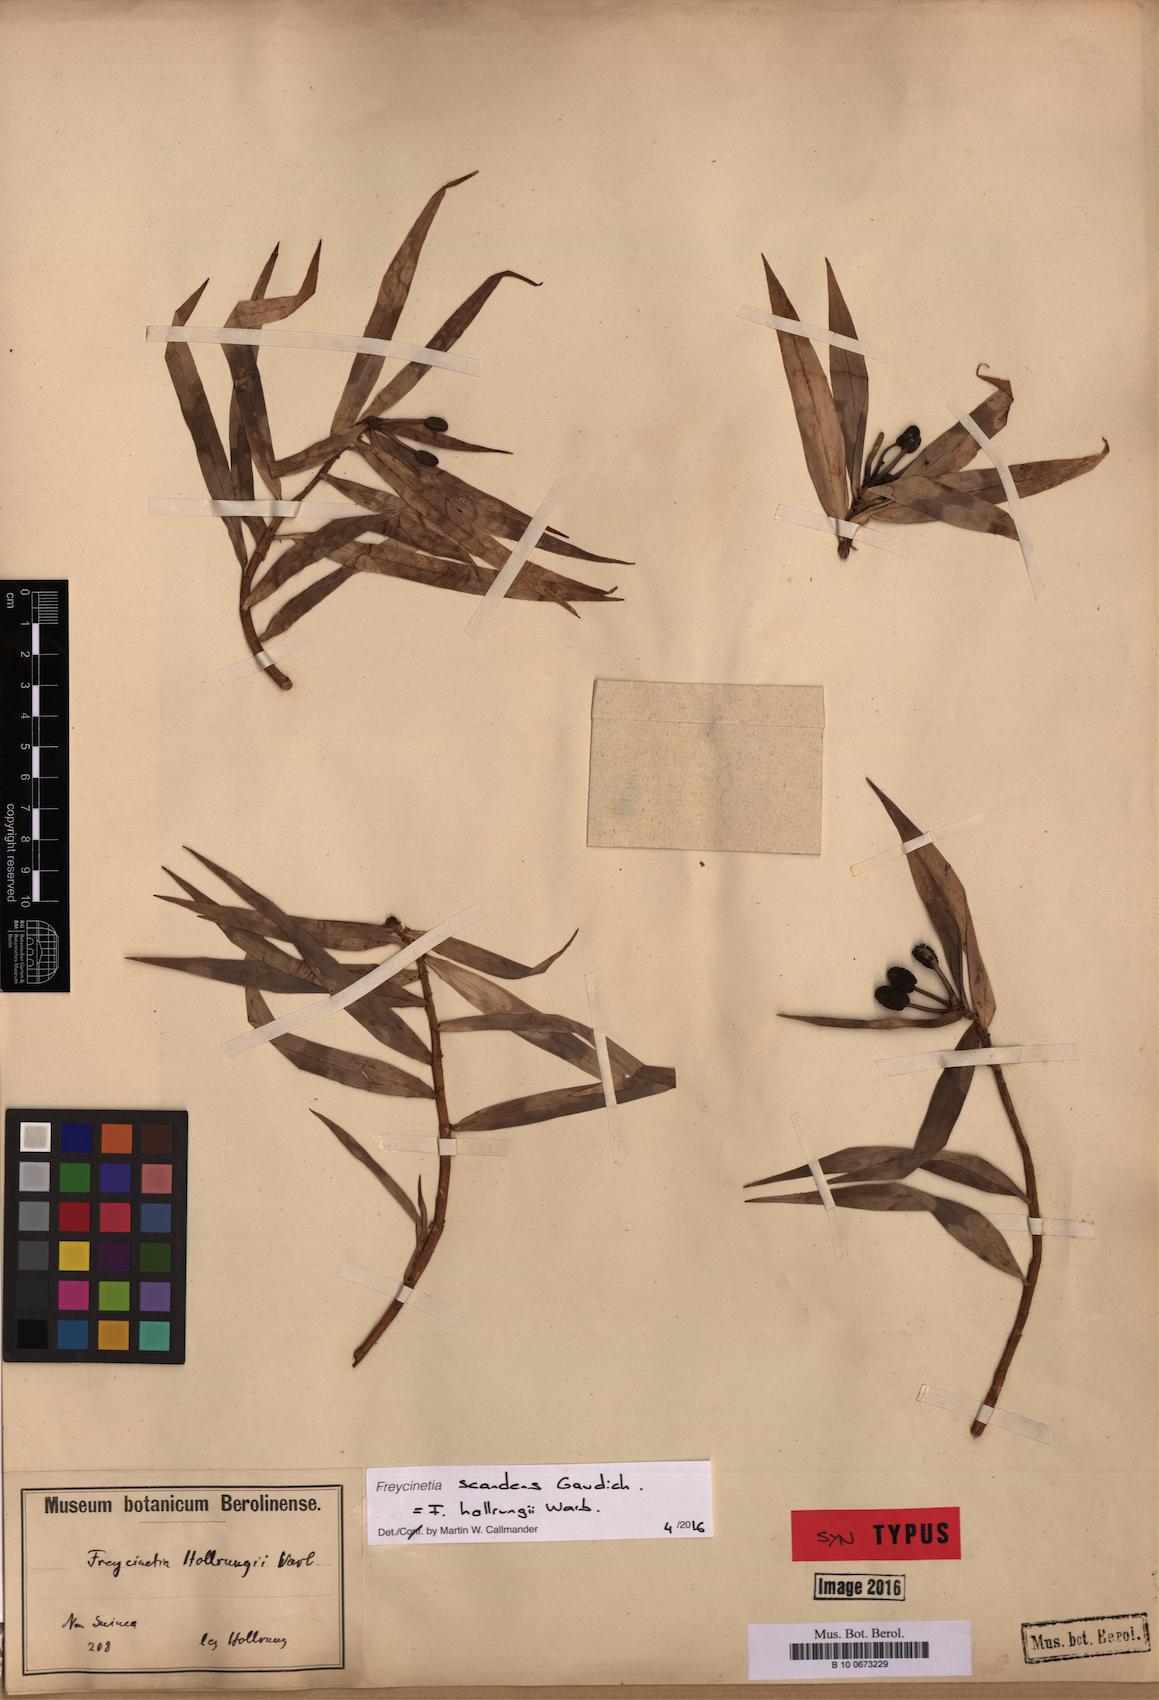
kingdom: Plantae
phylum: Tracheophyta
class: Liliopsida
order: Pandanales
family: Pandanaceae
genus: Freycinetia
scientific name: Freycinetia scandens
